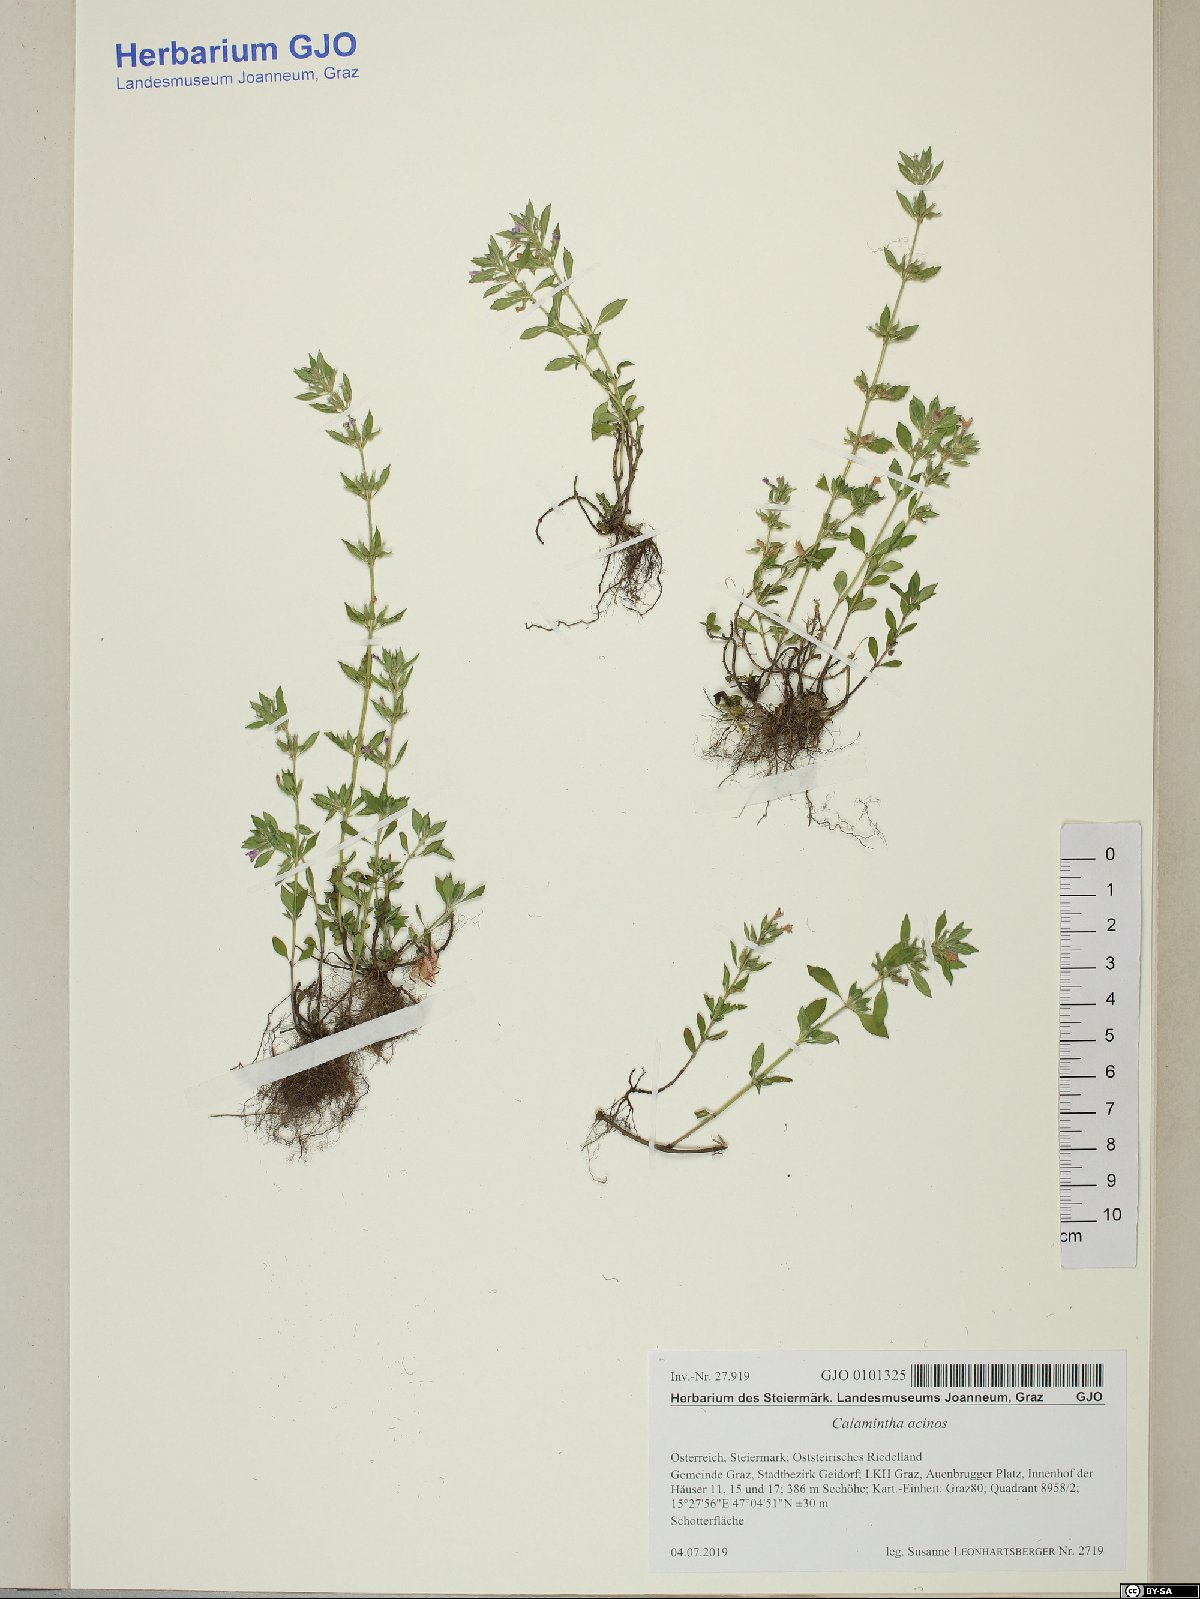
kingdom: Plantae
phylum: Tracheophyta
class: Magnoliopsida
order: Lamiales
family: Lamiaceae
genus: Clinopodium
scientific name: Clinopodium acinos
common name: Basil thyme
